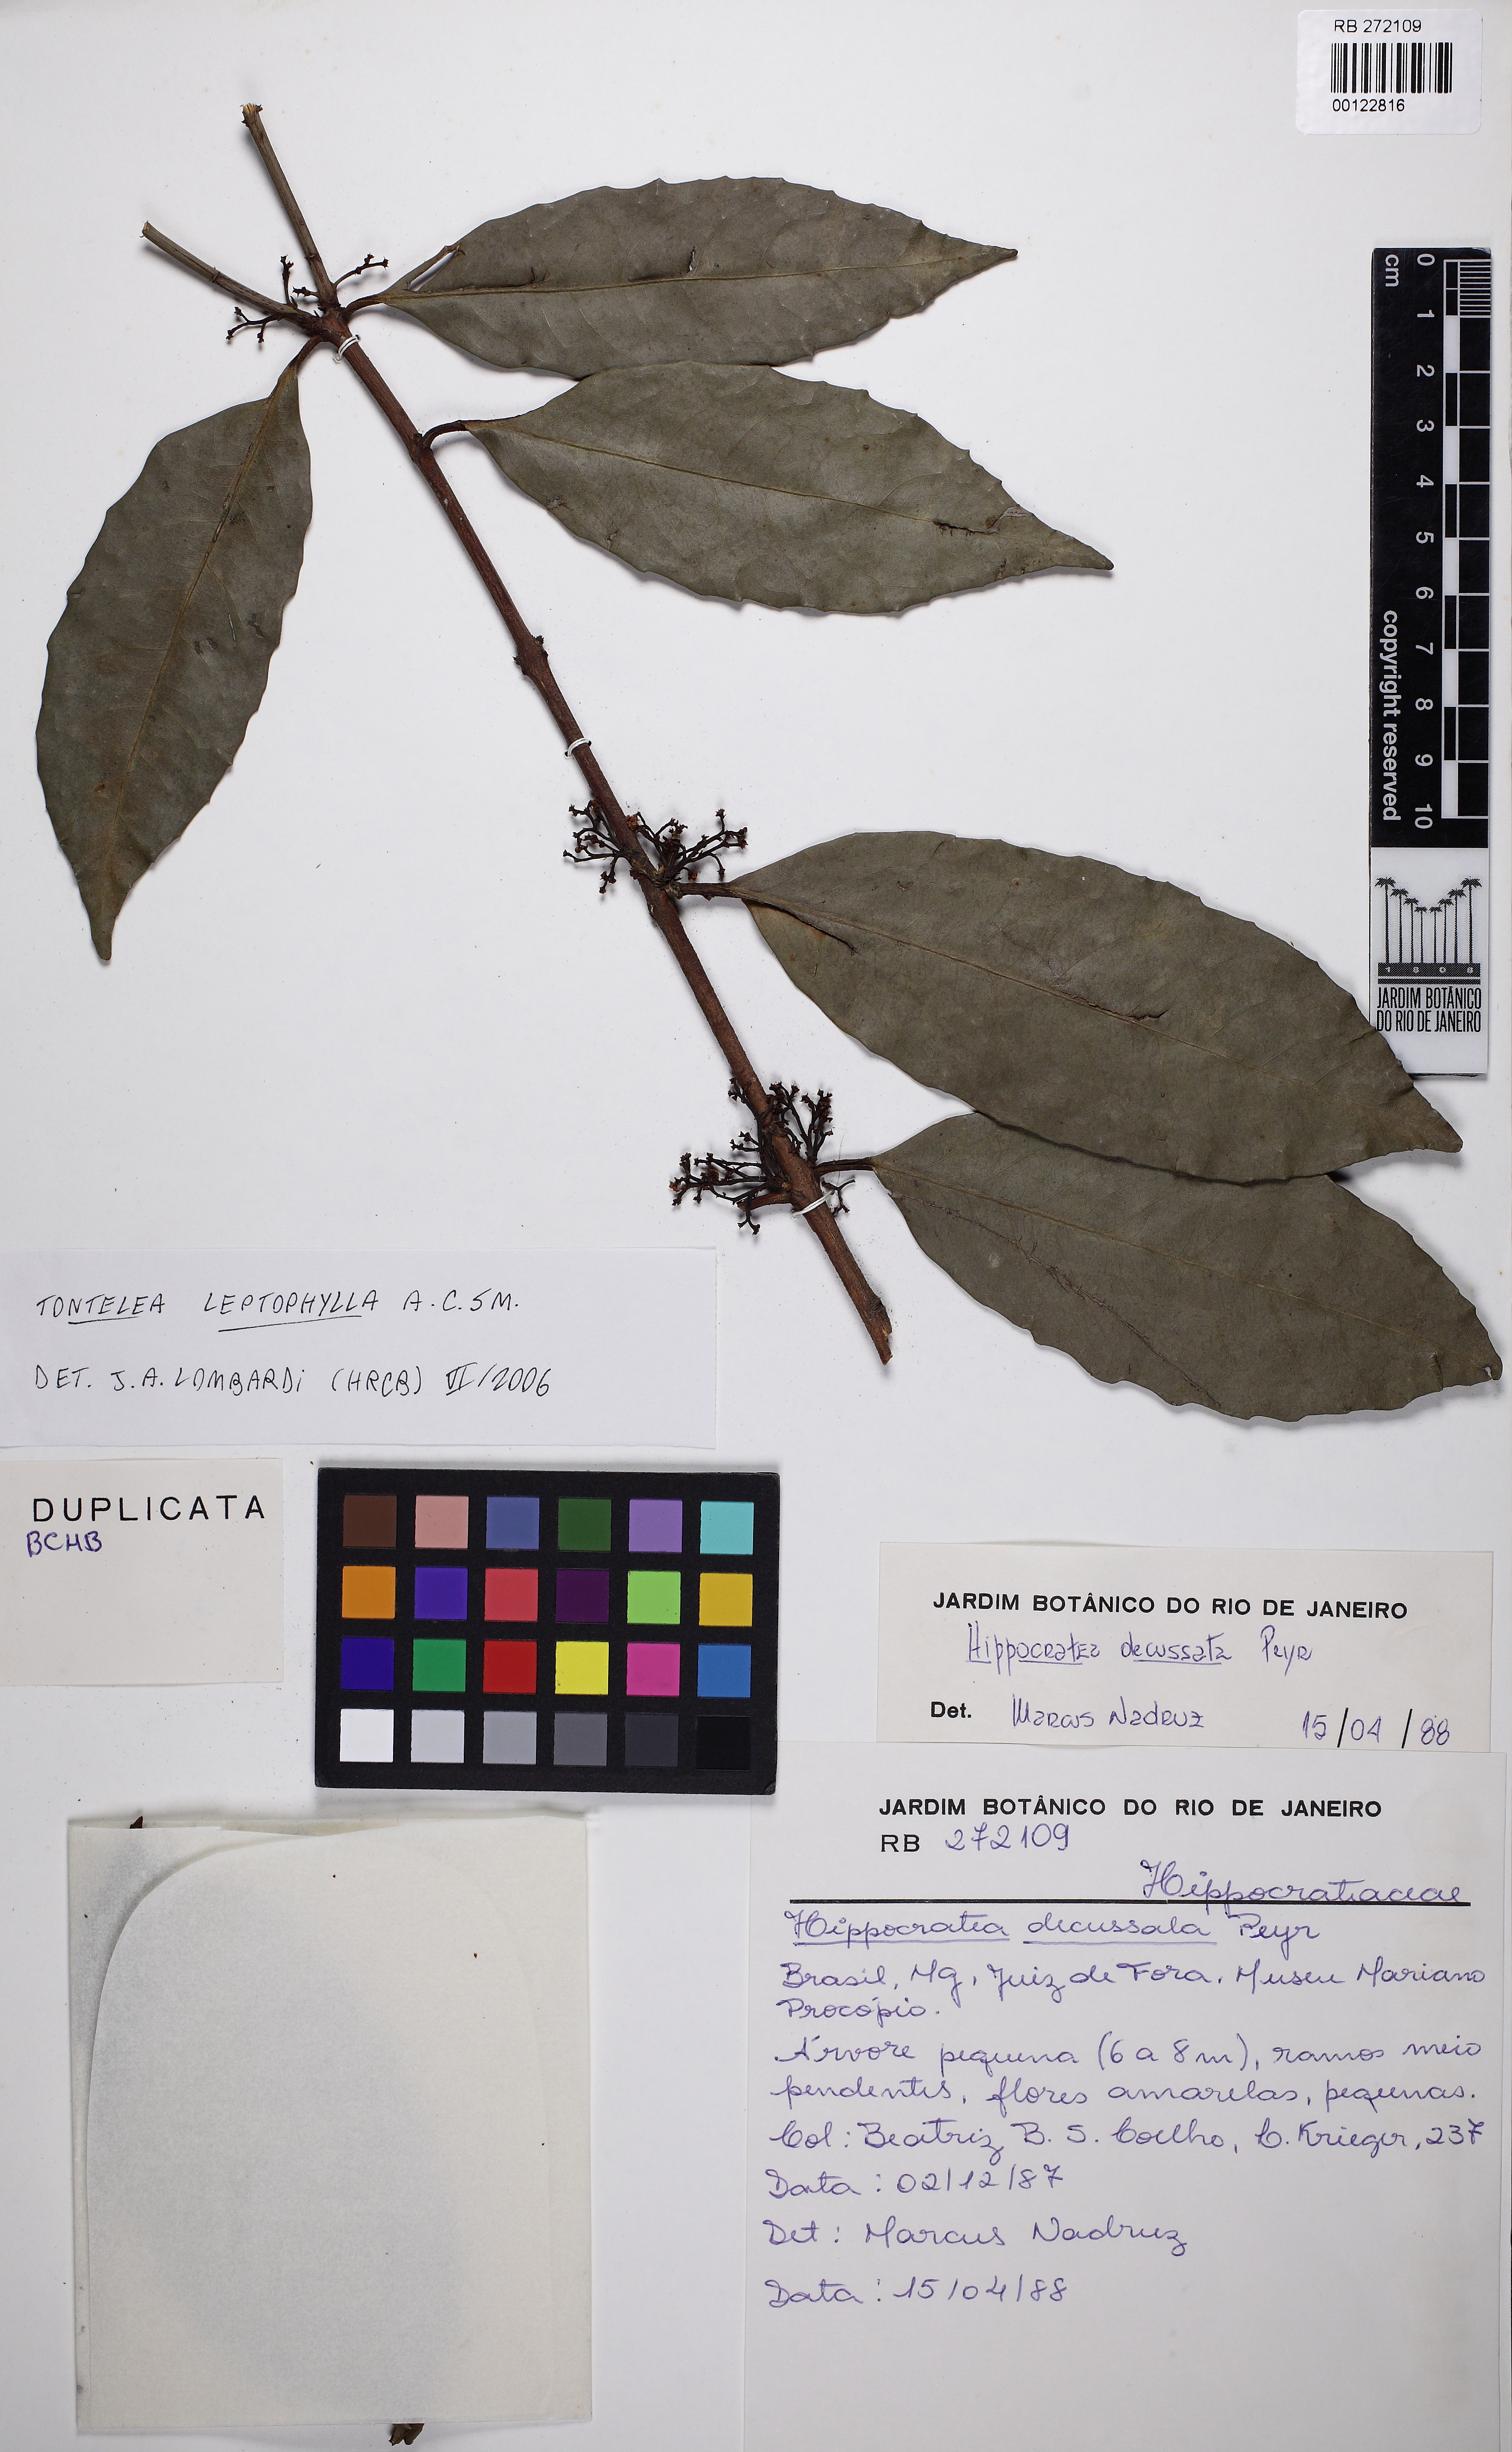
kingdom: Plantae
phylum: Tracheophyta
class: Magnoliopsida
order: Celastrales
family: Celastraceae
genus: Tontelea
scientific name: Tontelea leptophylla
